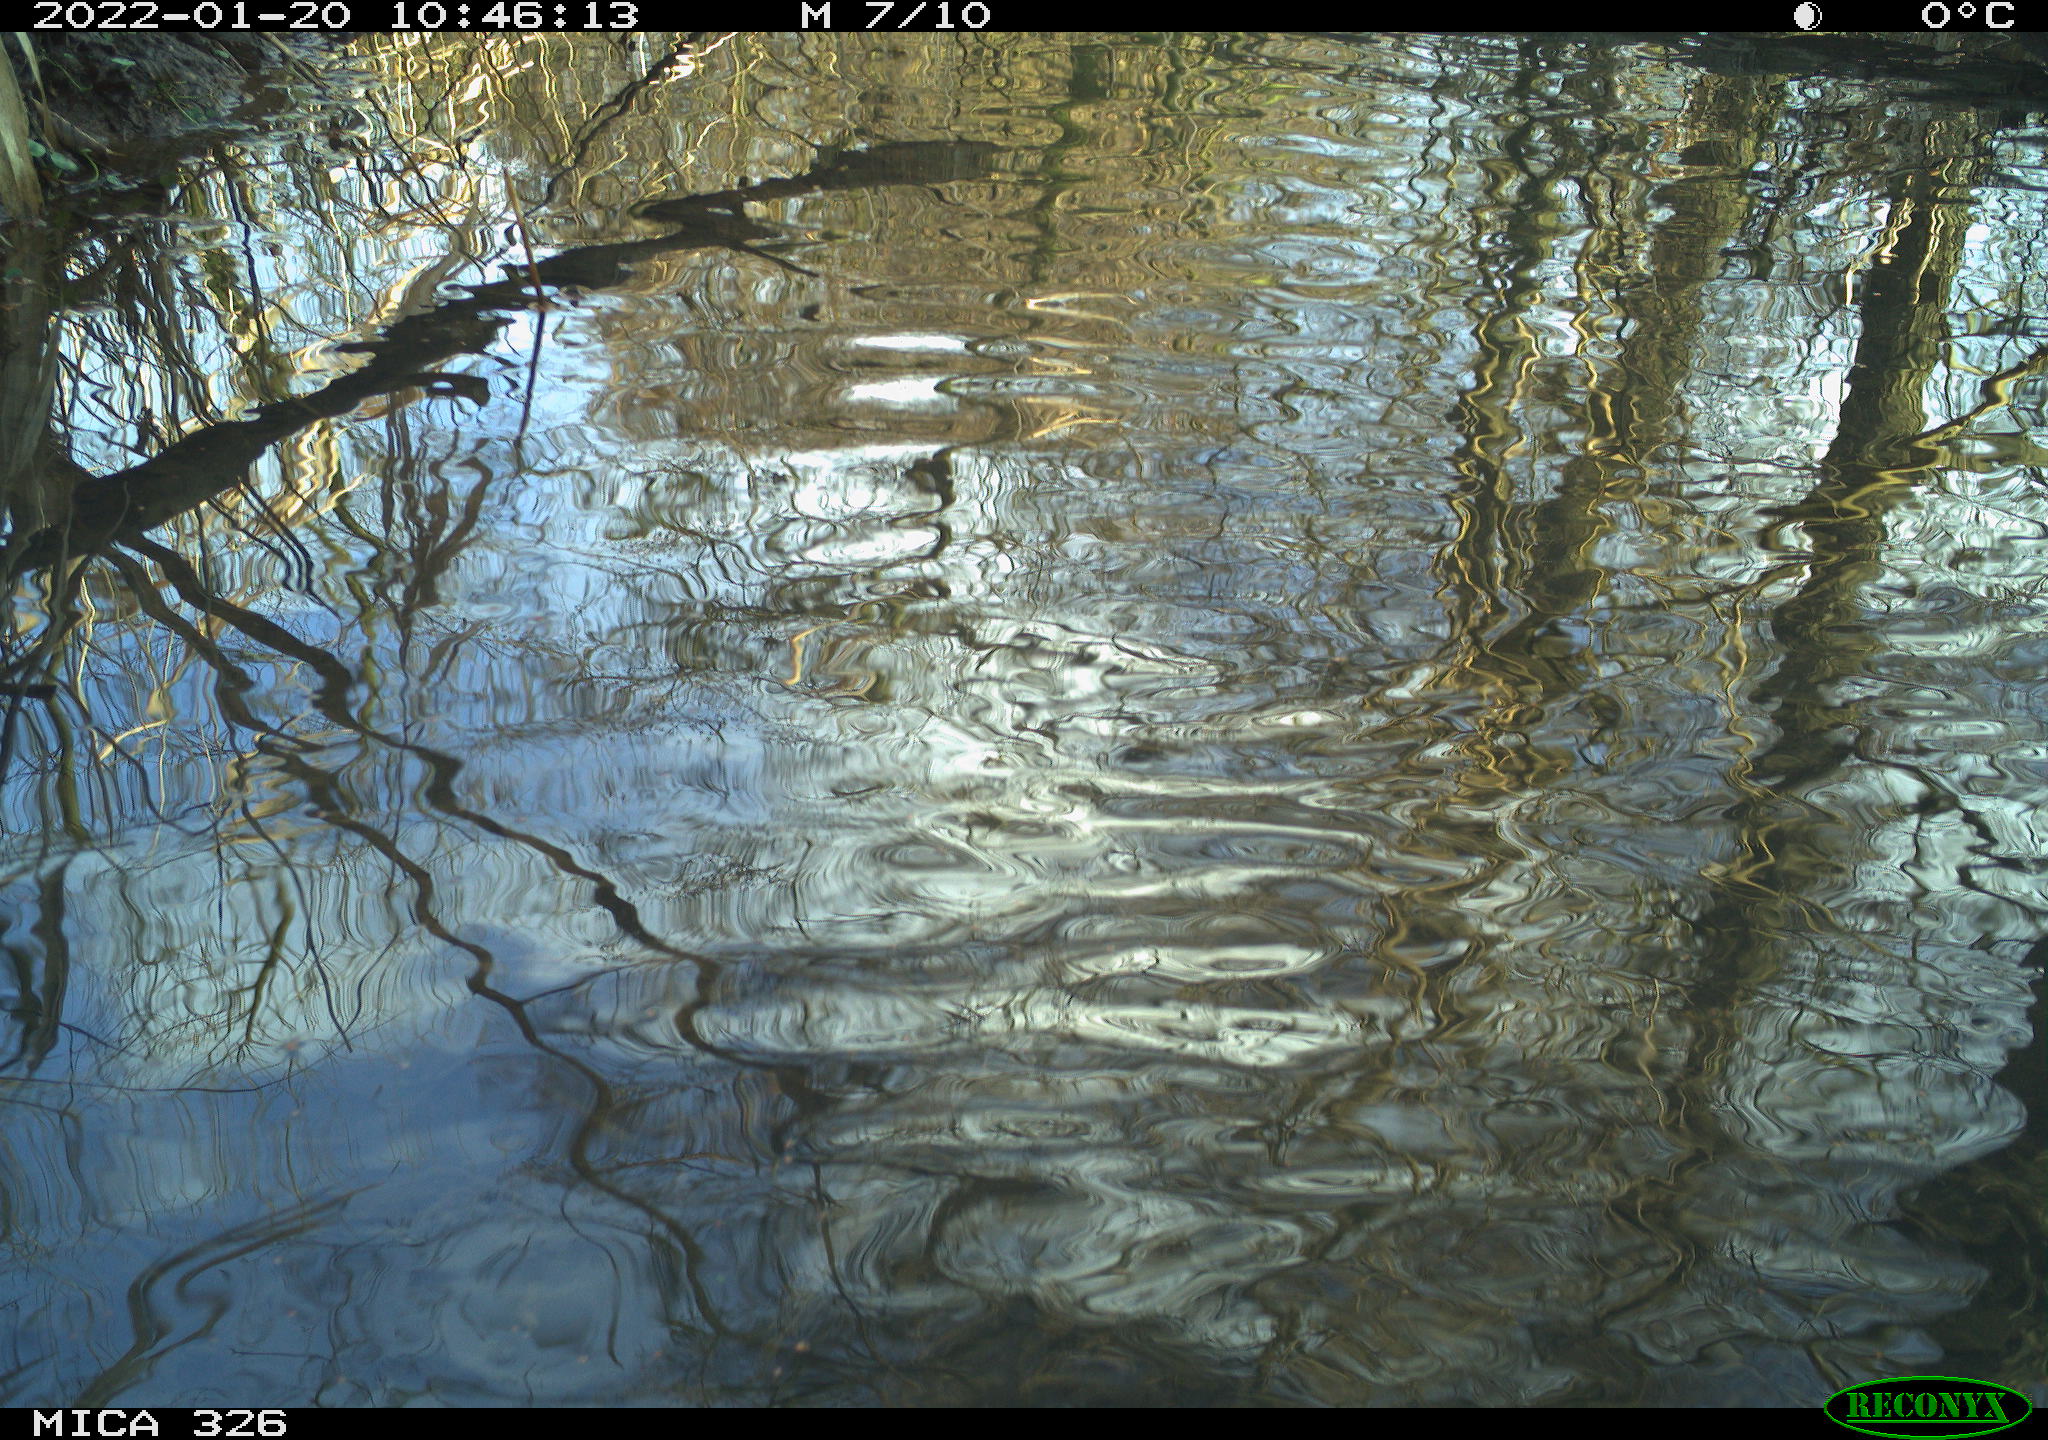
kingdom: Animalia
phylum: Chordata
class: Aves
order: Gruiformes
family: Rallidae
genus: Gallinula
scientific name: Gallinula chloropus
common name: Common moorhen
